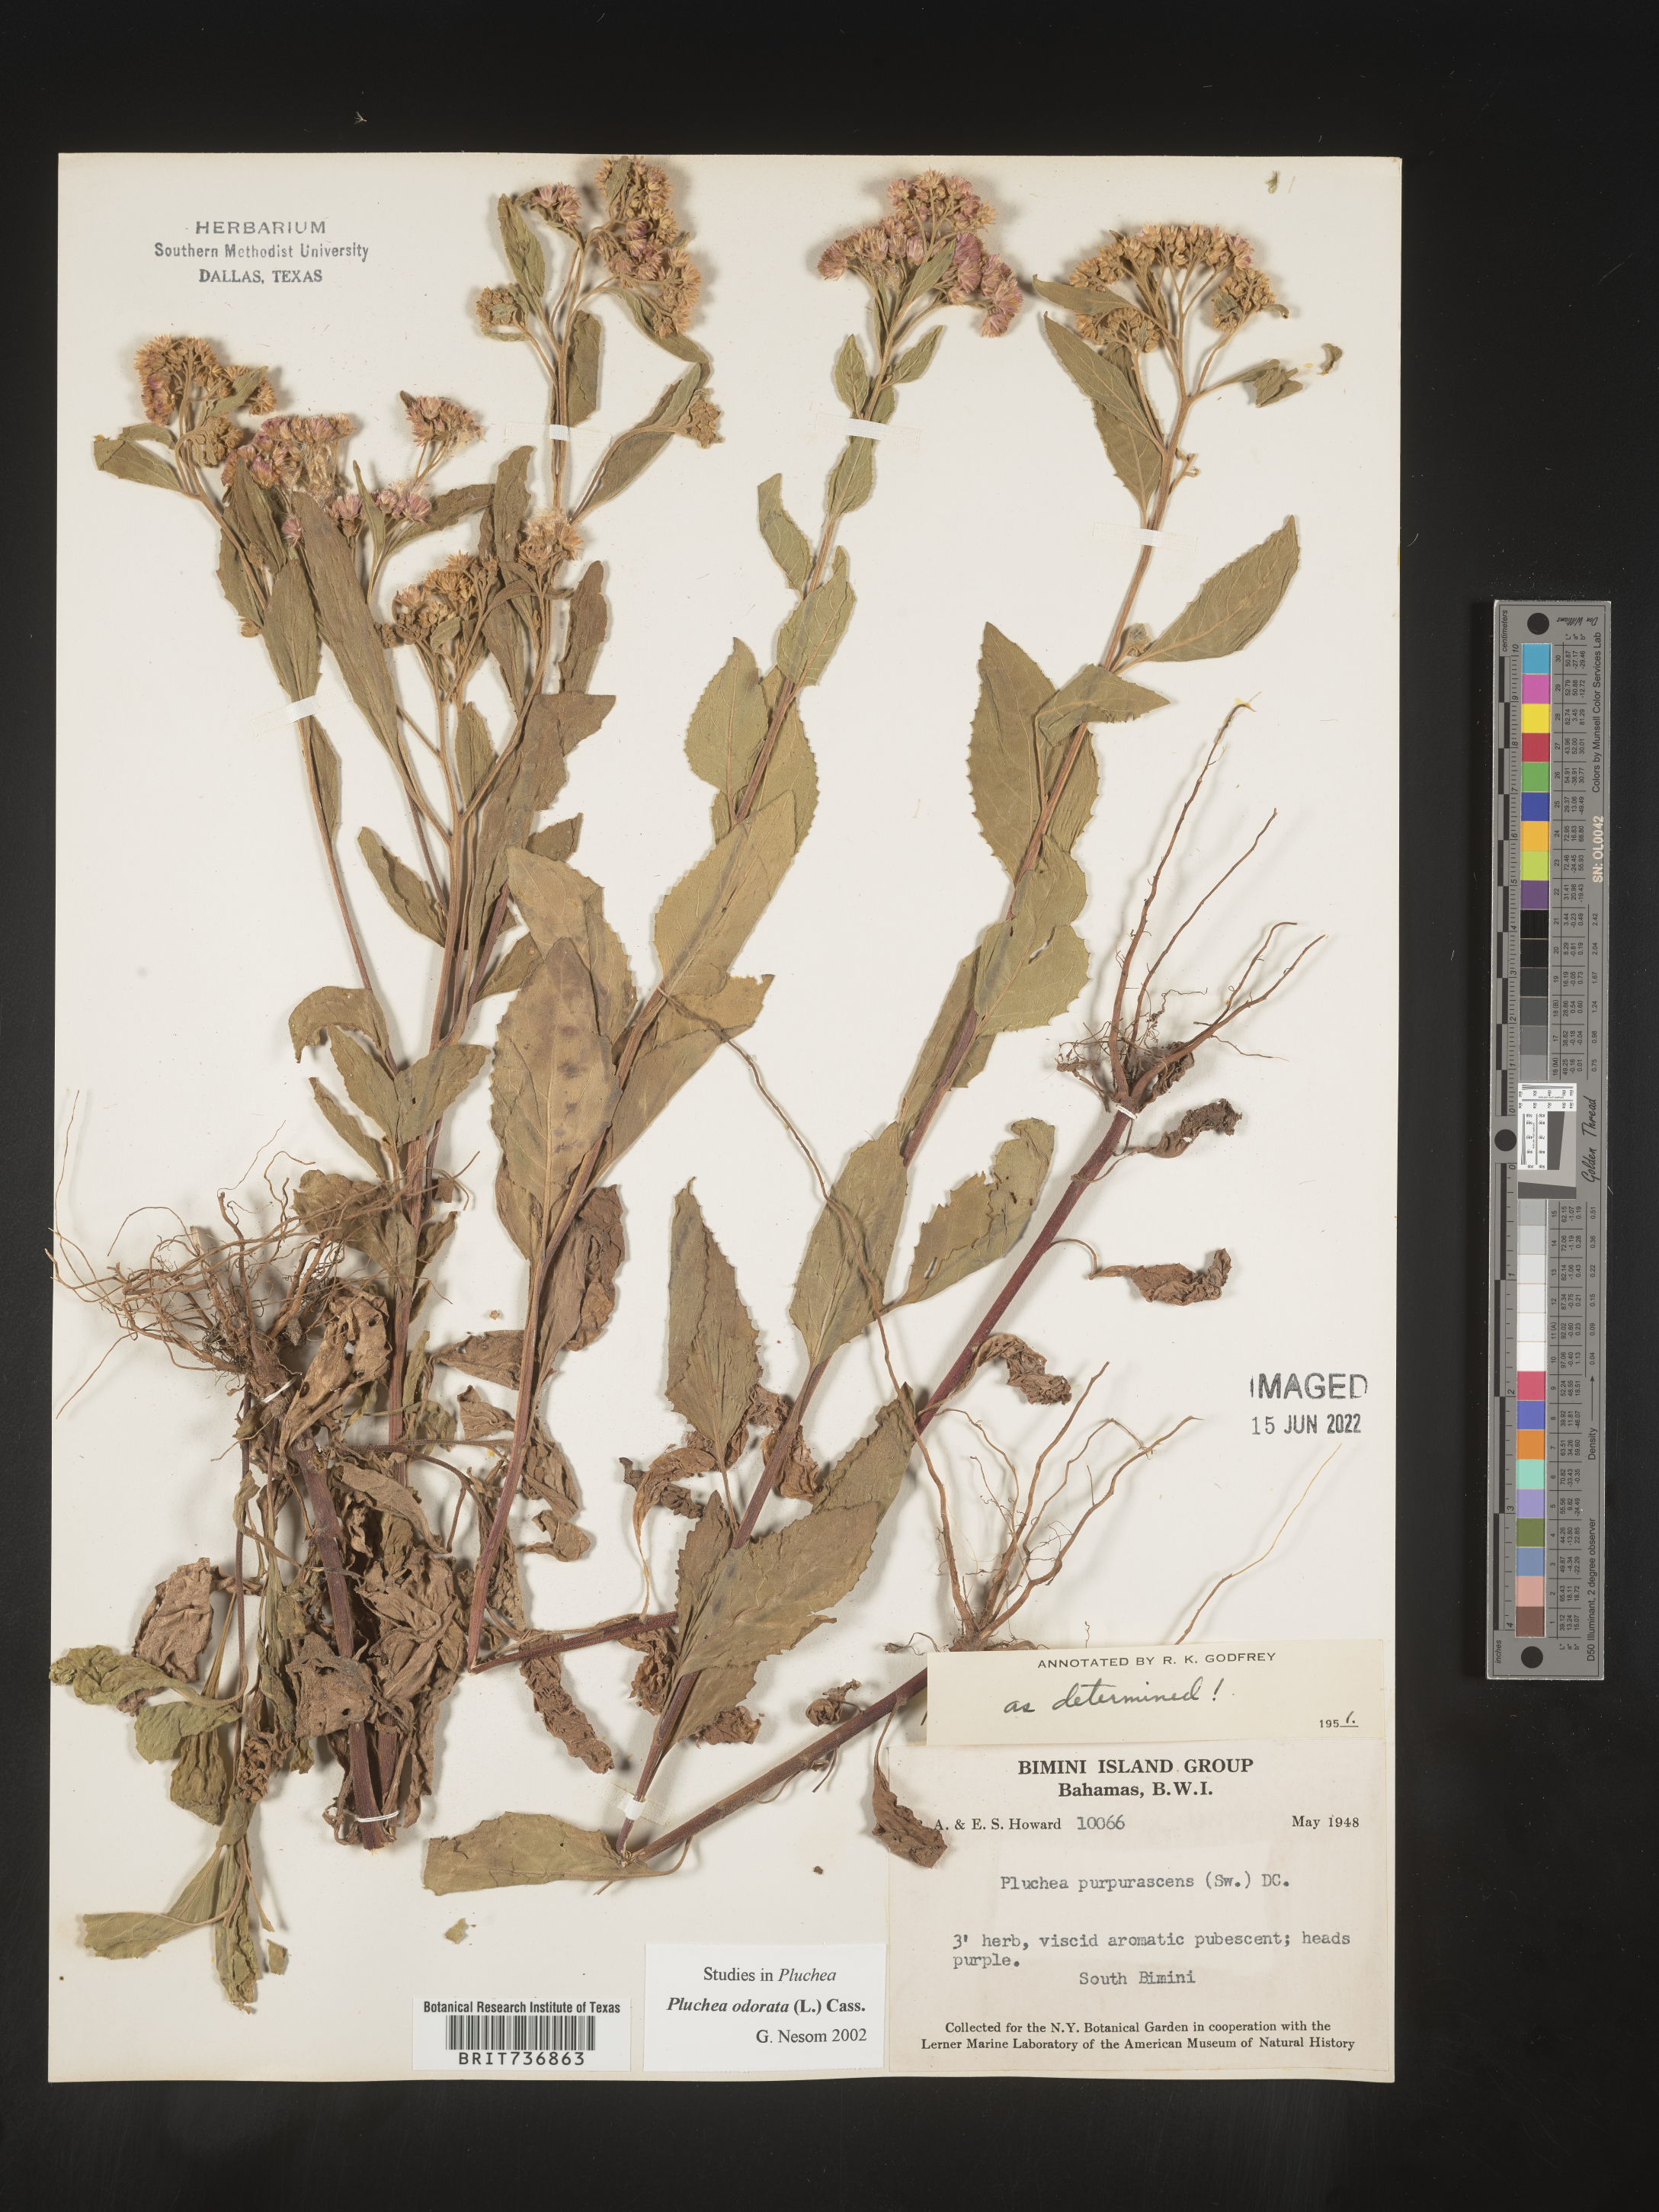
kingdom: Plantae
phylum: Tracheophyta
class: Magnoliopsida
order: Asterales
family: Asteraceae
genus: Pluchea
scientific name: Pluchea
